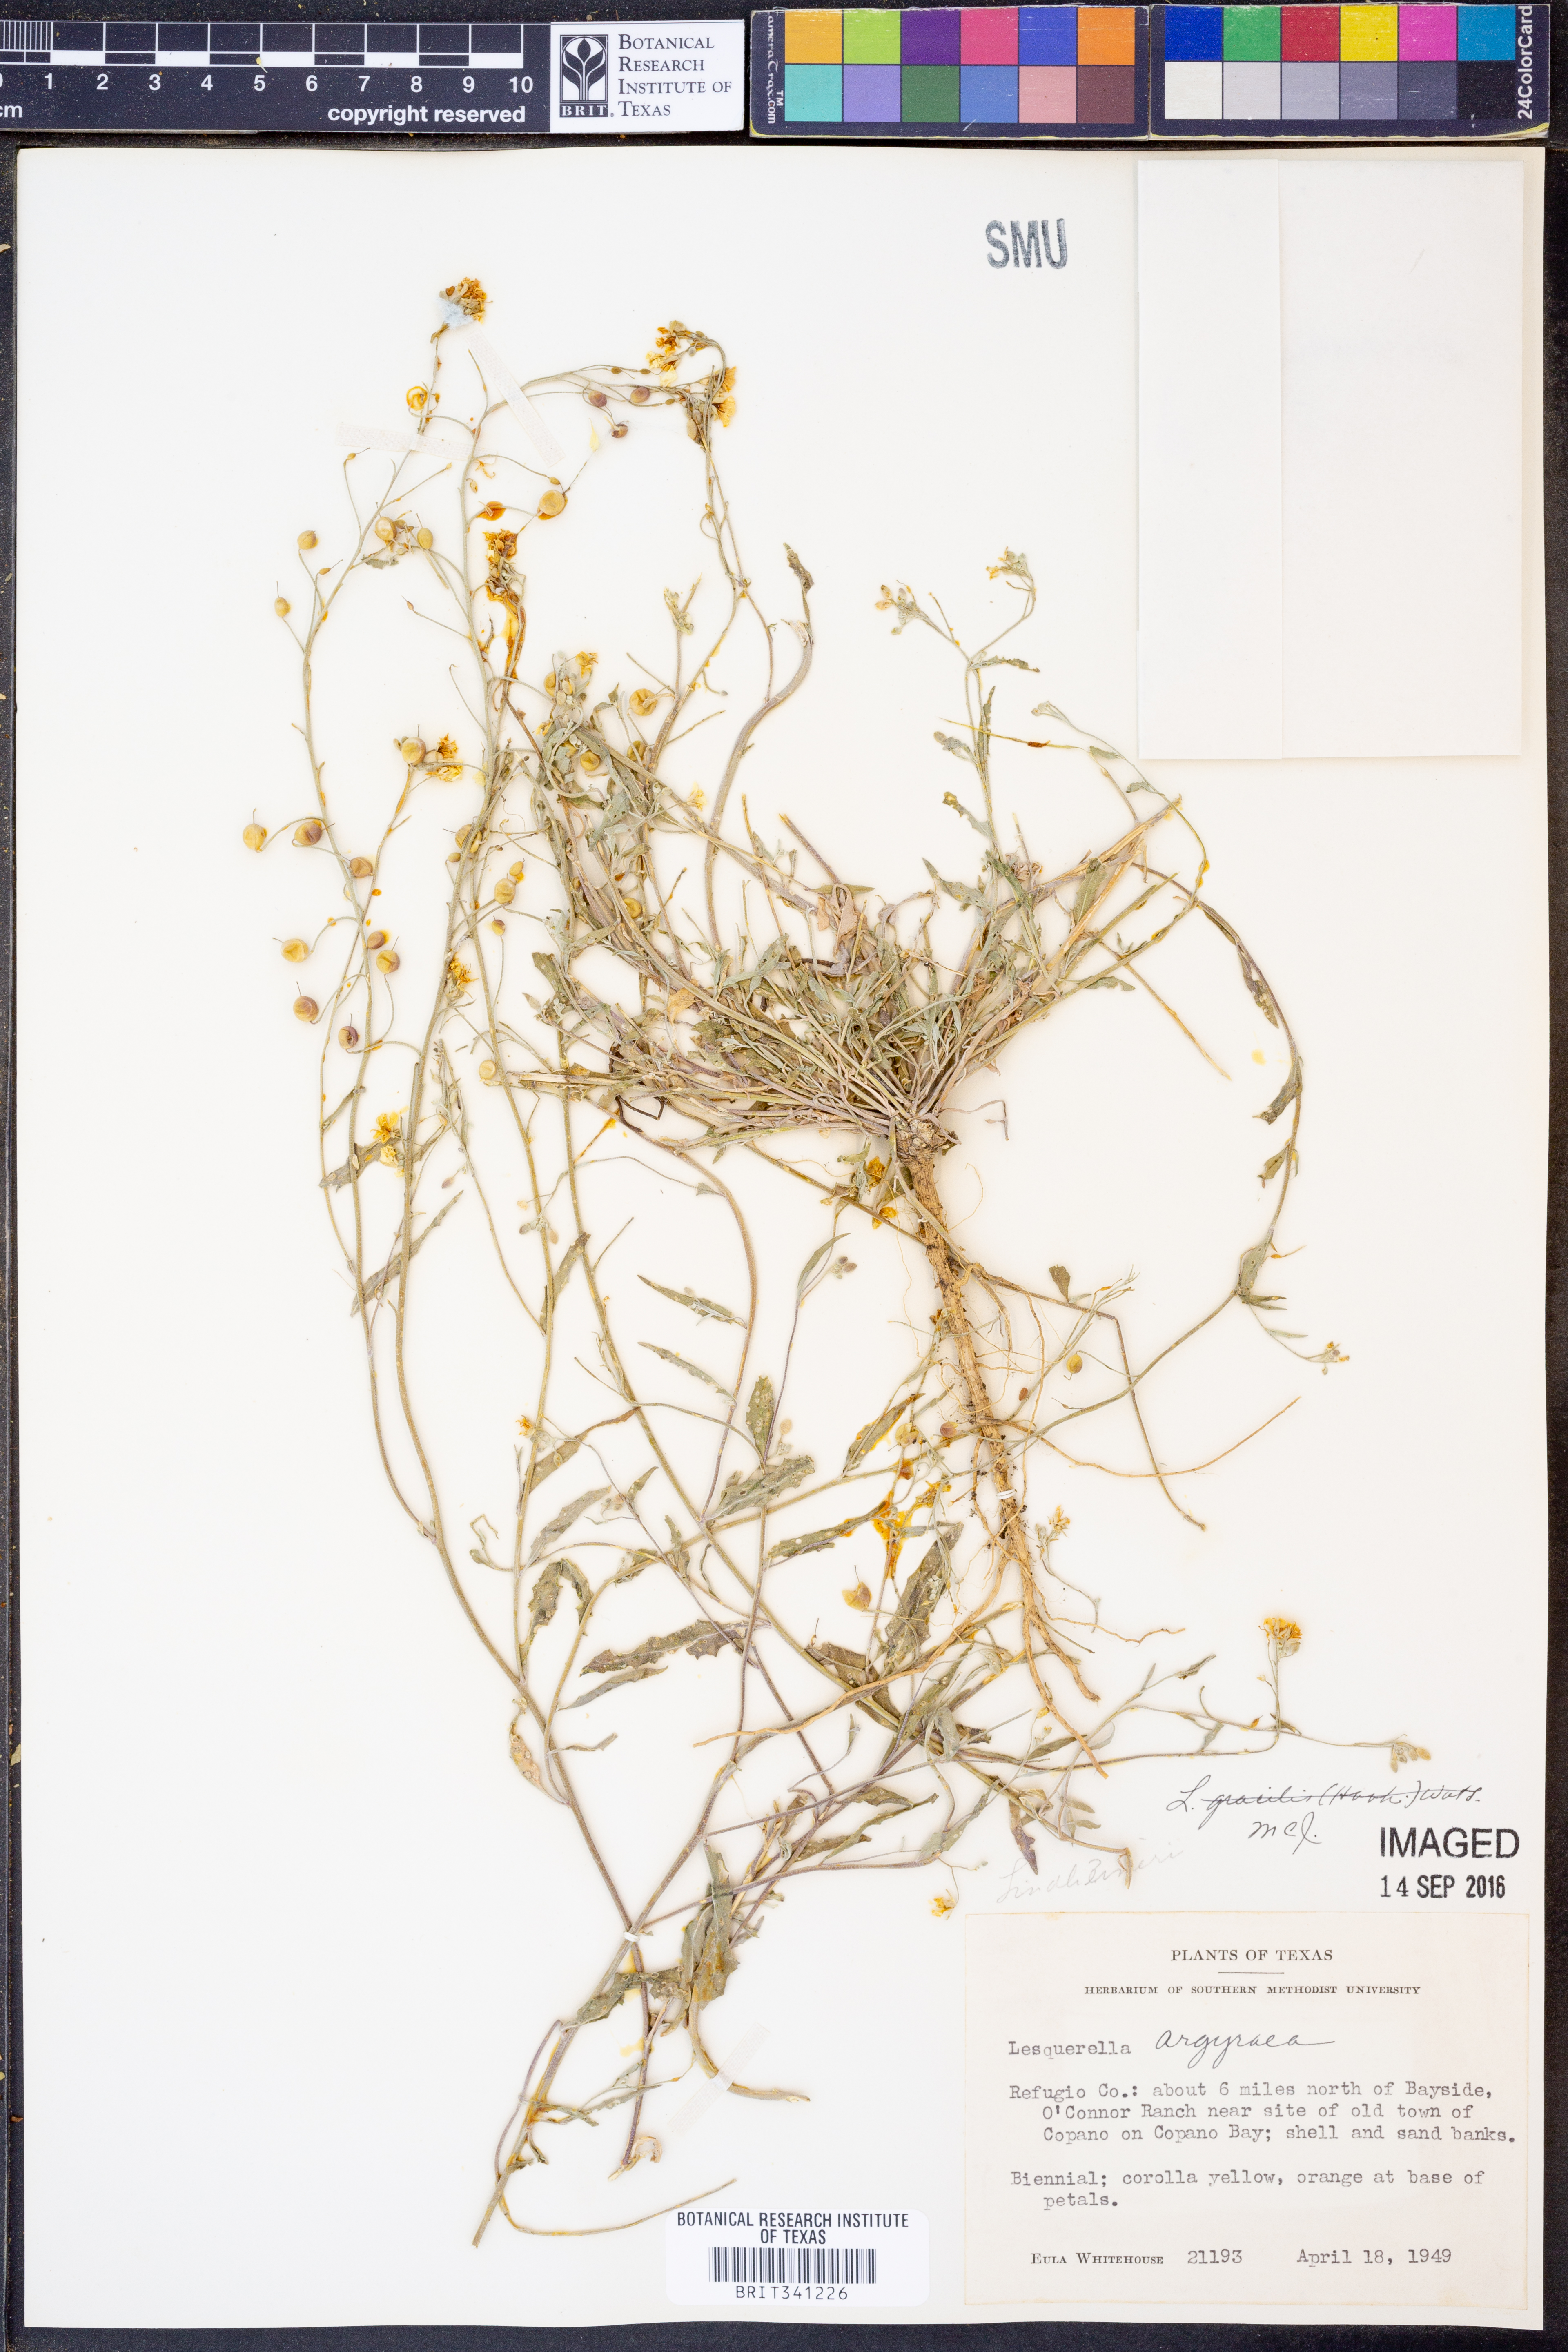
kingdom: Plantae
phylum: Tracheophyta
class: Magnoliopsida
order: Brassicales
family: Brassicaceae
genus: Physaria
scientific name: Physaria argyraea
